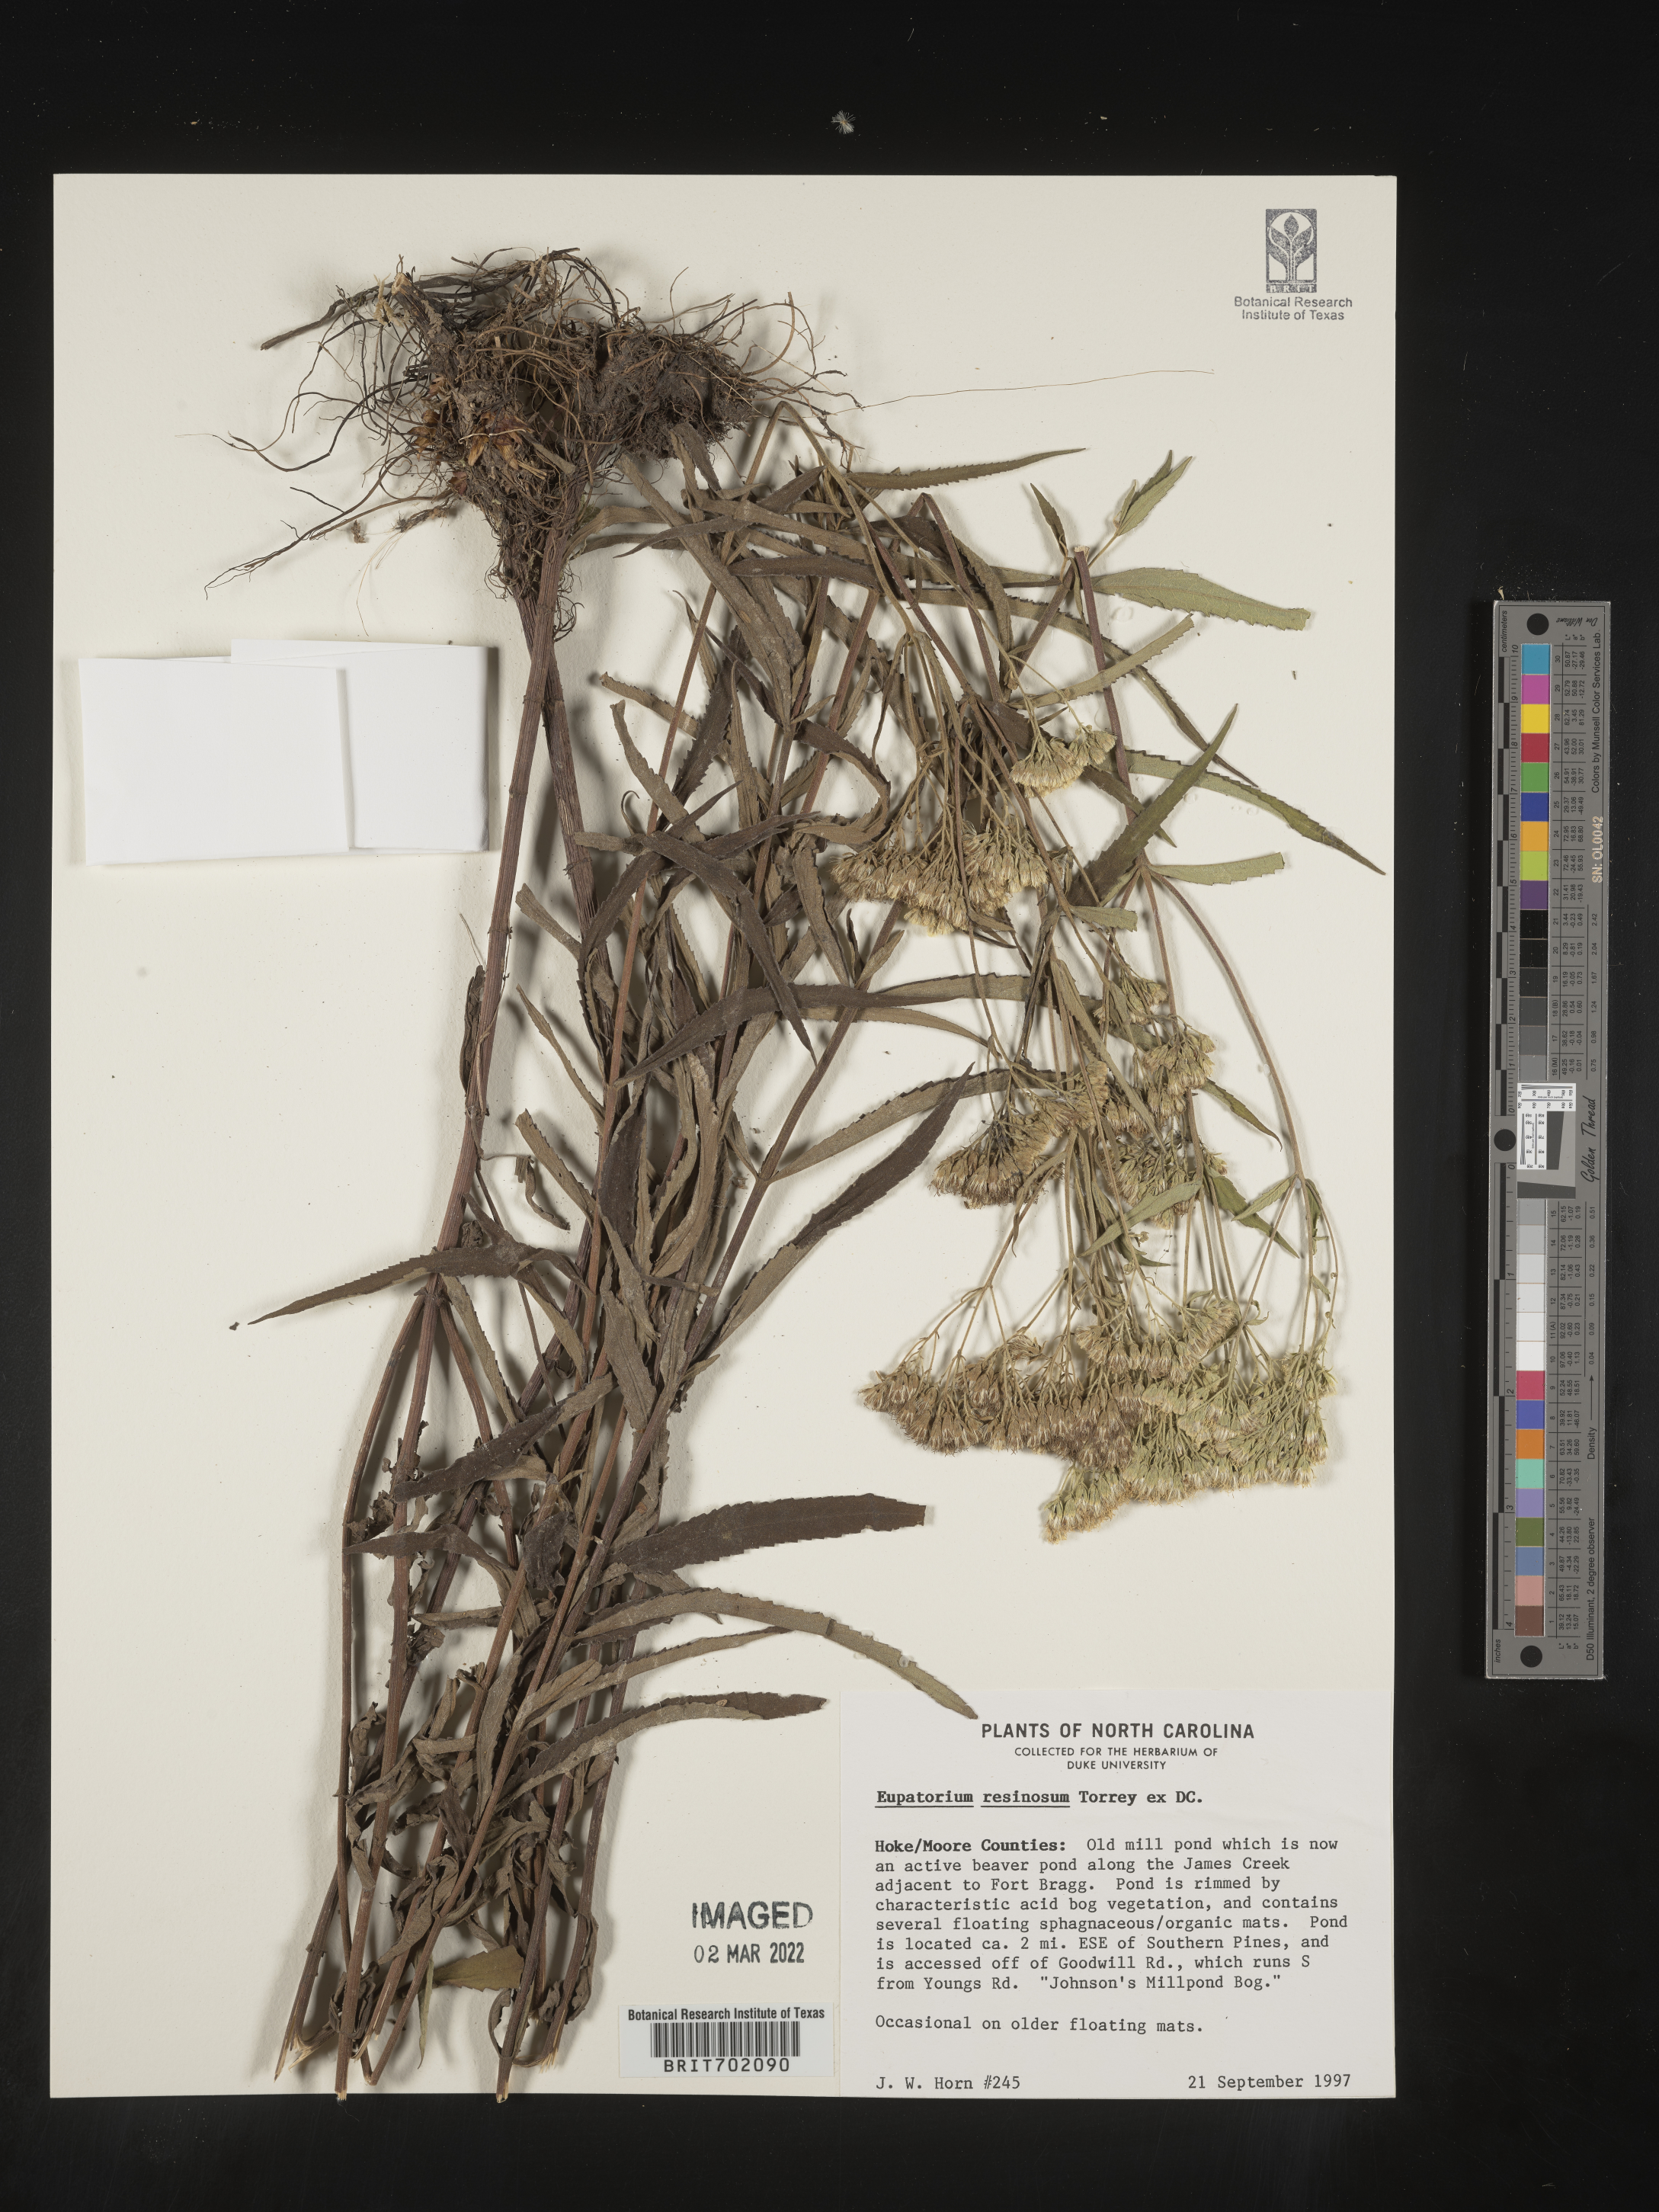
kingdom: Plantae
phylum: Tracheophyta
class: Magnoliopsida
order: Asterales
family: Asteraceae
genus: Eupatorium
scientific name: Eupatorium resinosum
